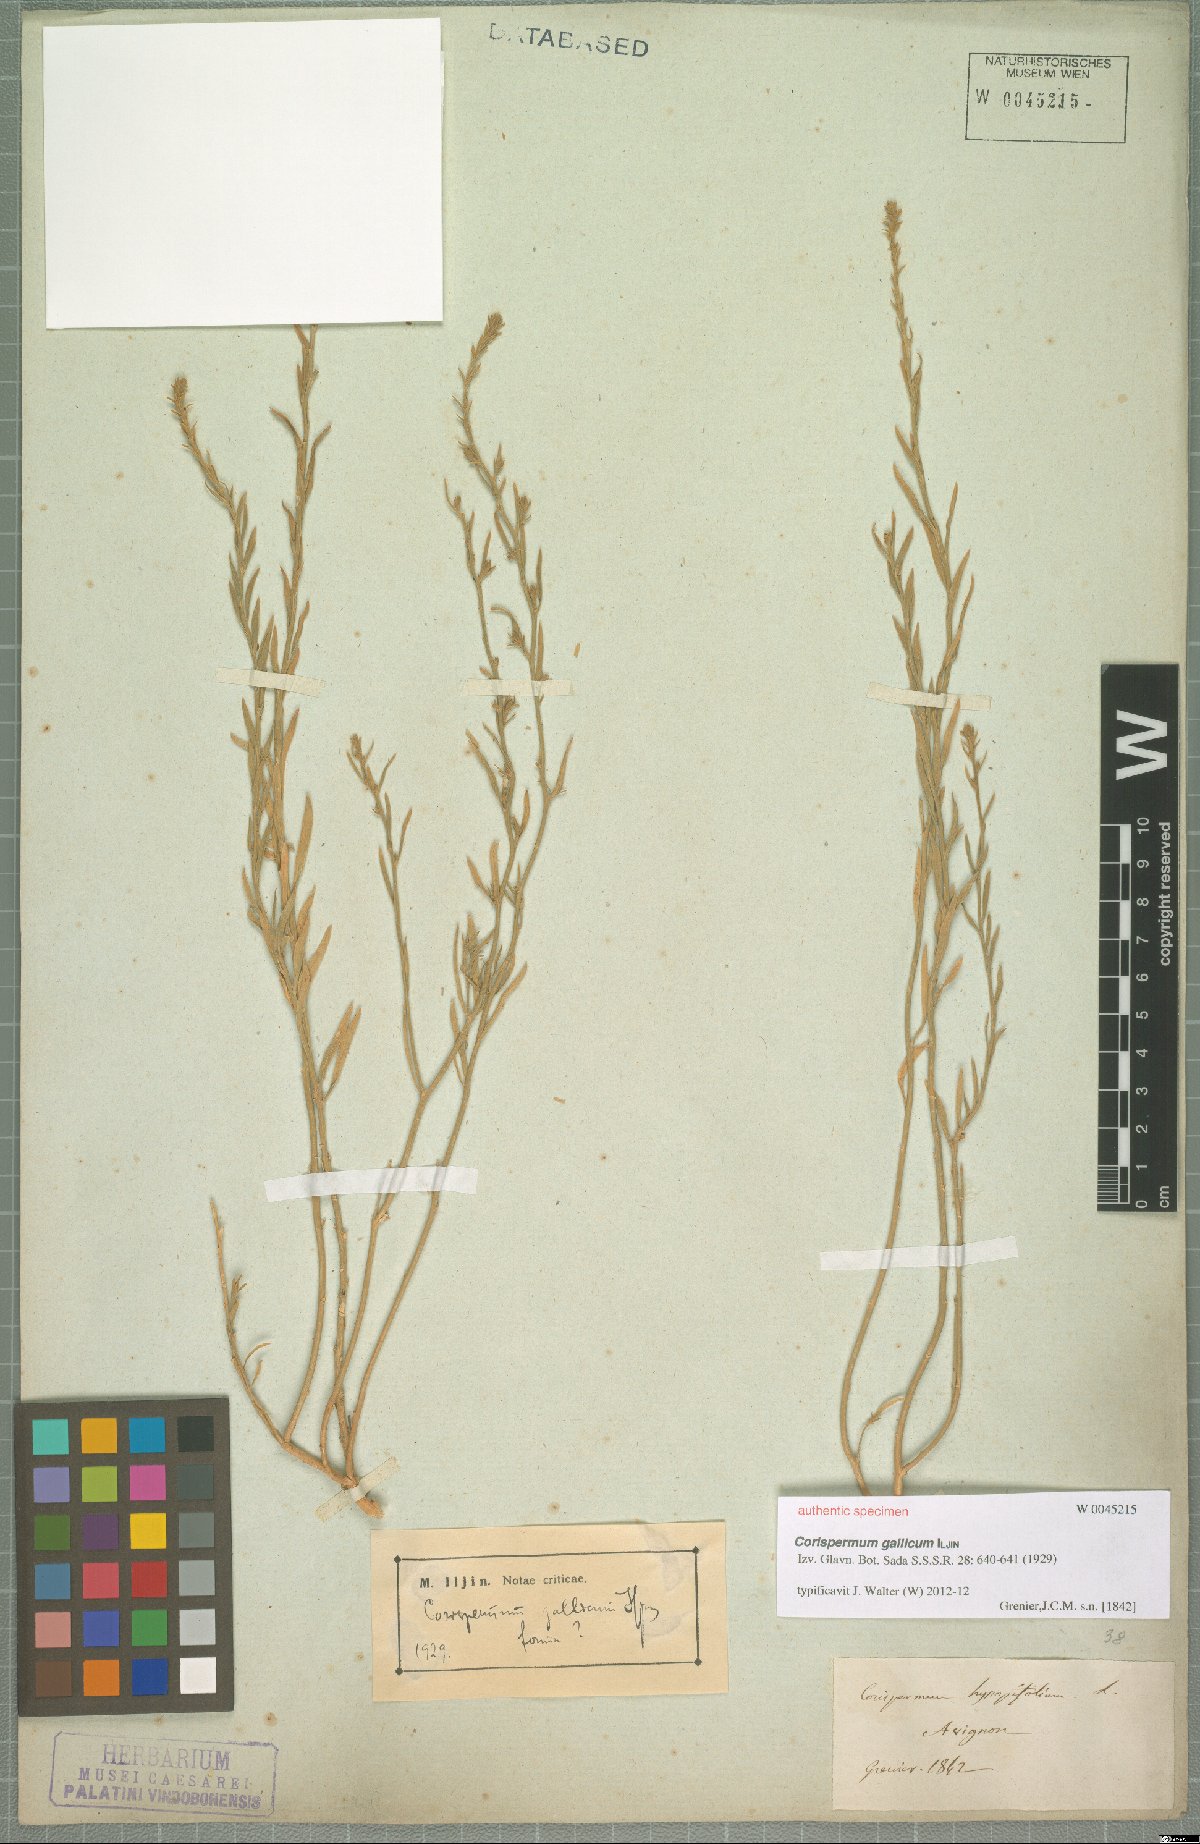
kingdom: Plantae
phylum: Tracheophyta
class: Magnoliopsida
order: Caryophyllales
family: Amaranthaceae
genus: Corispermum
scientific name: Corispermum gallicum
